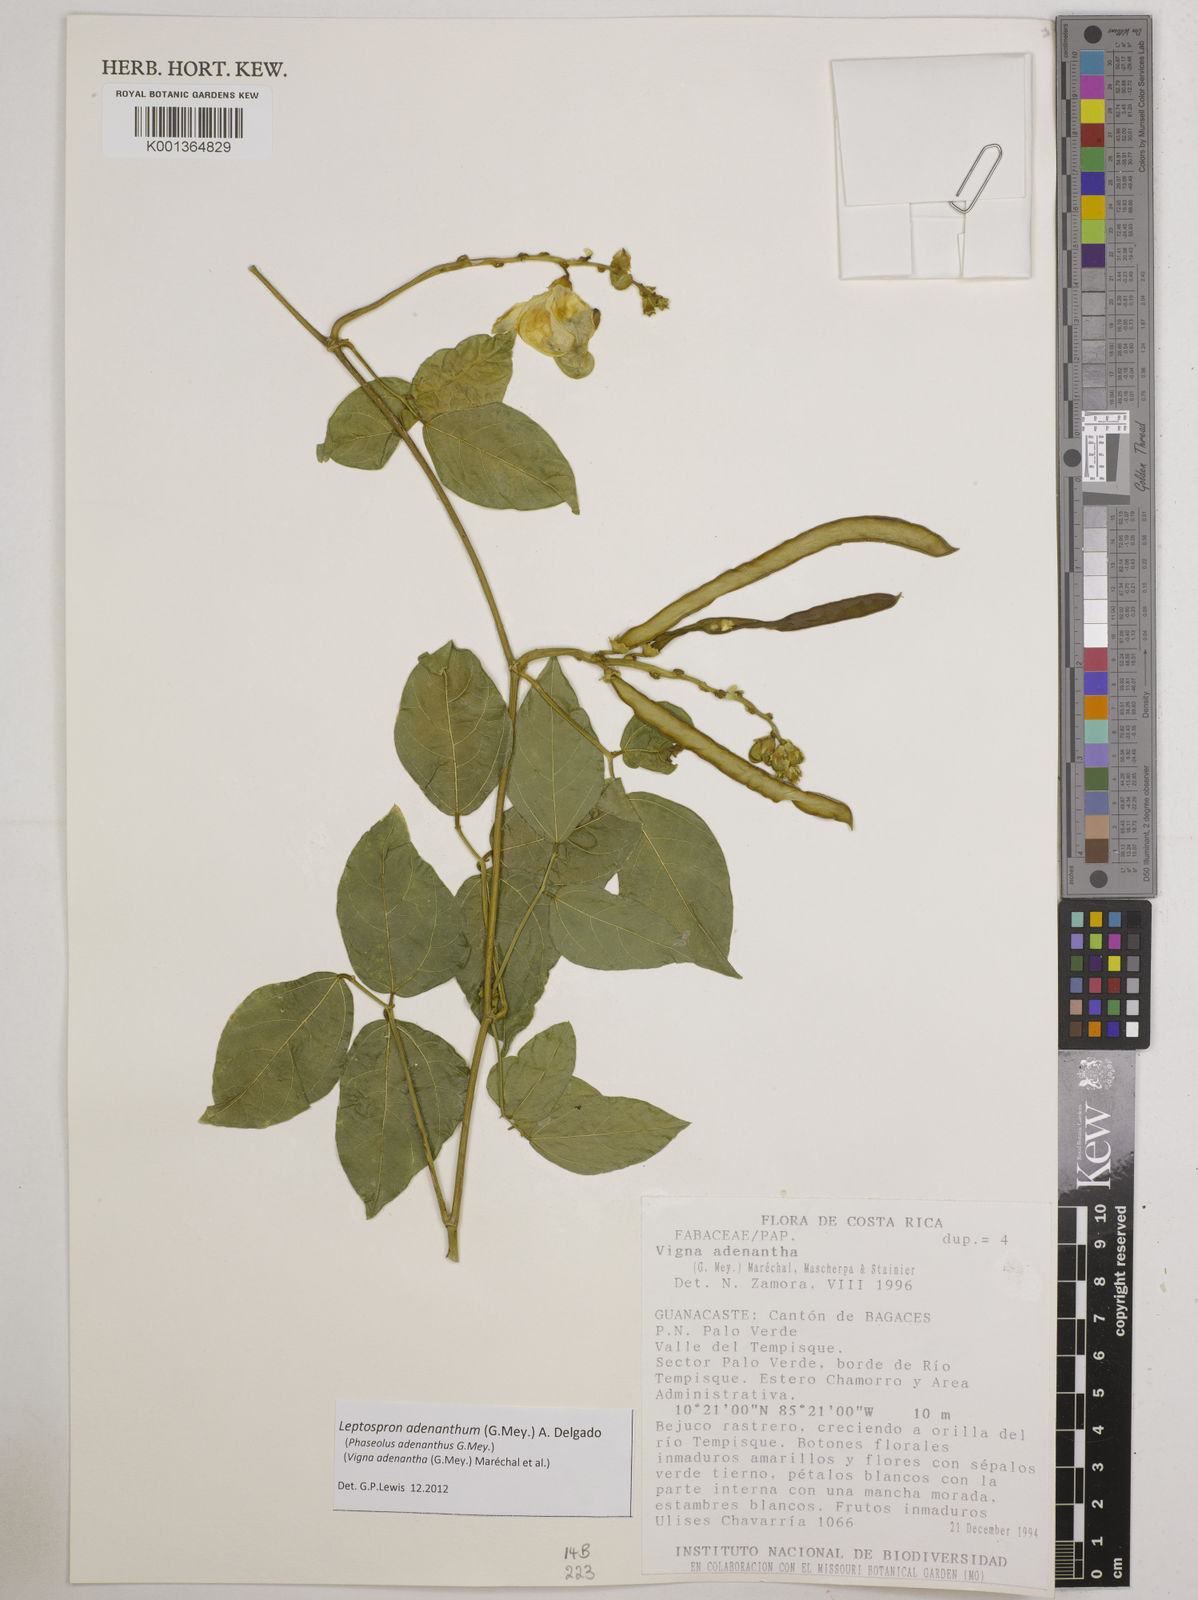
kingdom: Plantae
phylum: Tracheophyta
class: Magnoliopsida
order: Fabales
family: Fabaceae
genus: Leptospron
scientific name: Leptospron adenanthum
